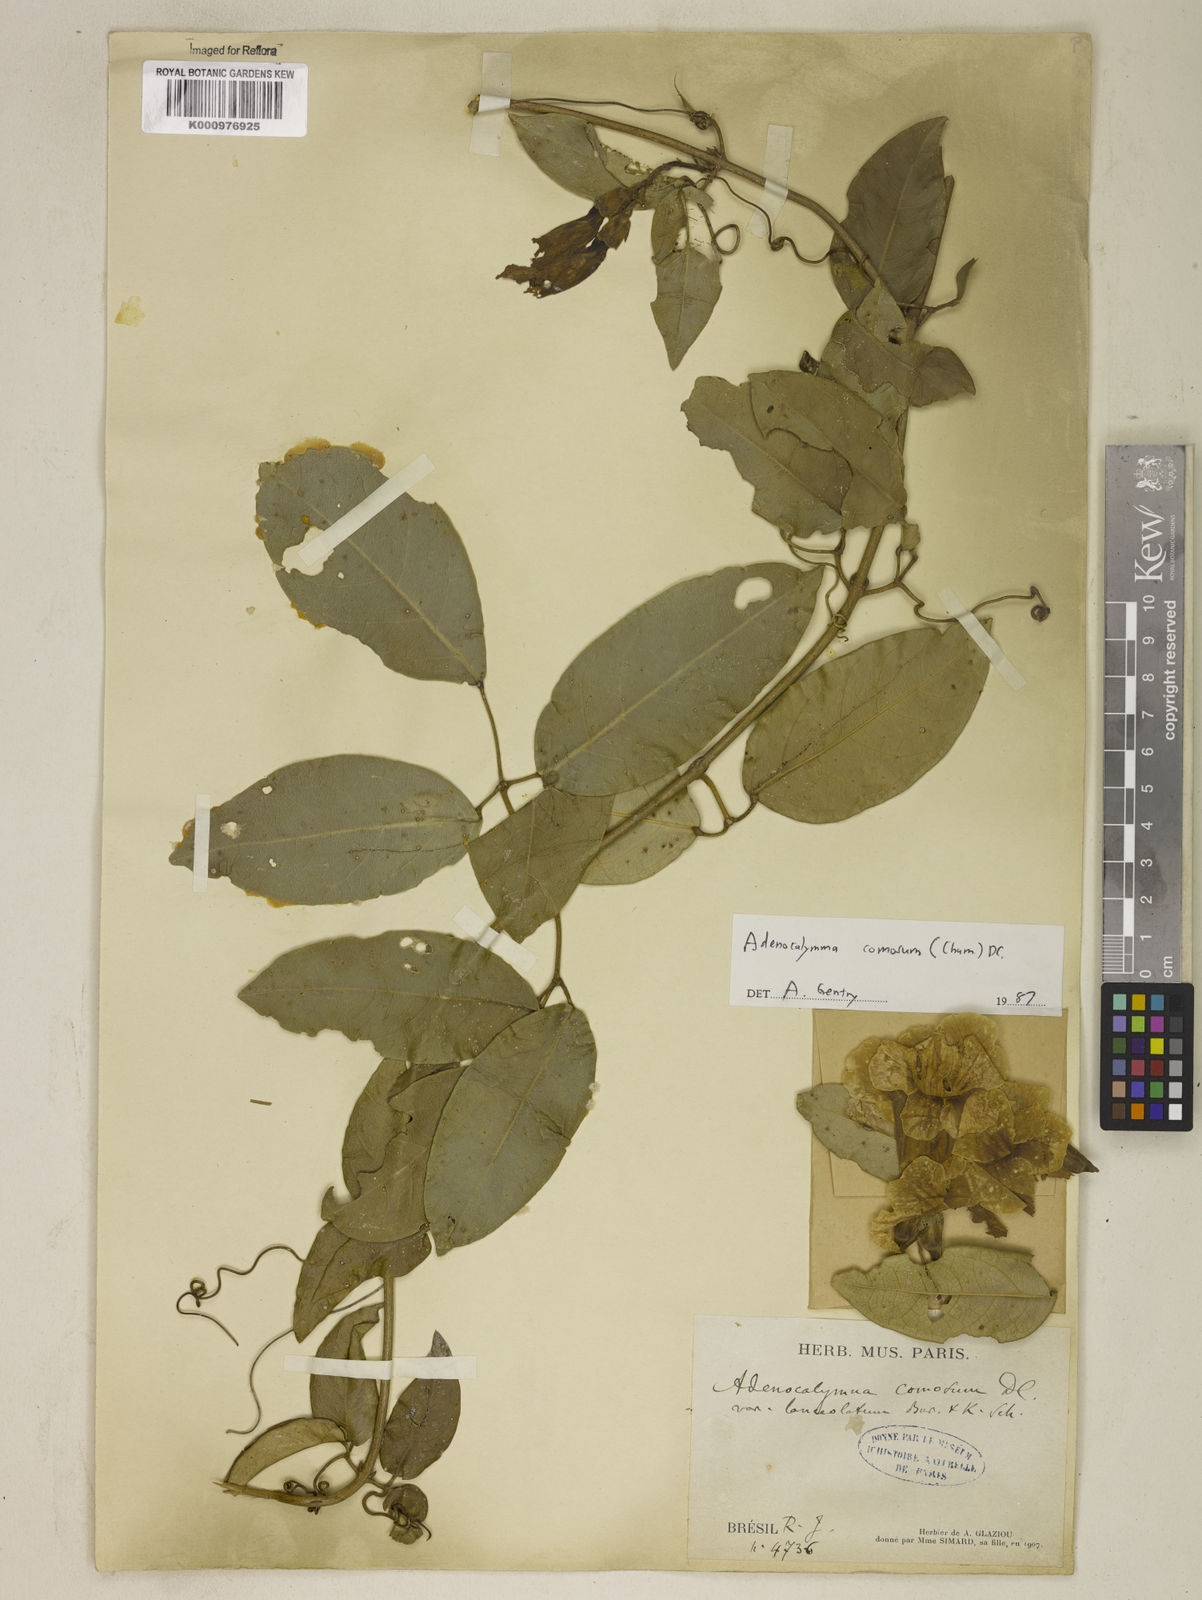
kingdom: Plantae
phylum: Tracheophyta
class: Magnoliopsida
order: Lamiales
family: Bignoniaceae
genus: Adenocalymma
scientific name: Adenocalymma acutissimum
